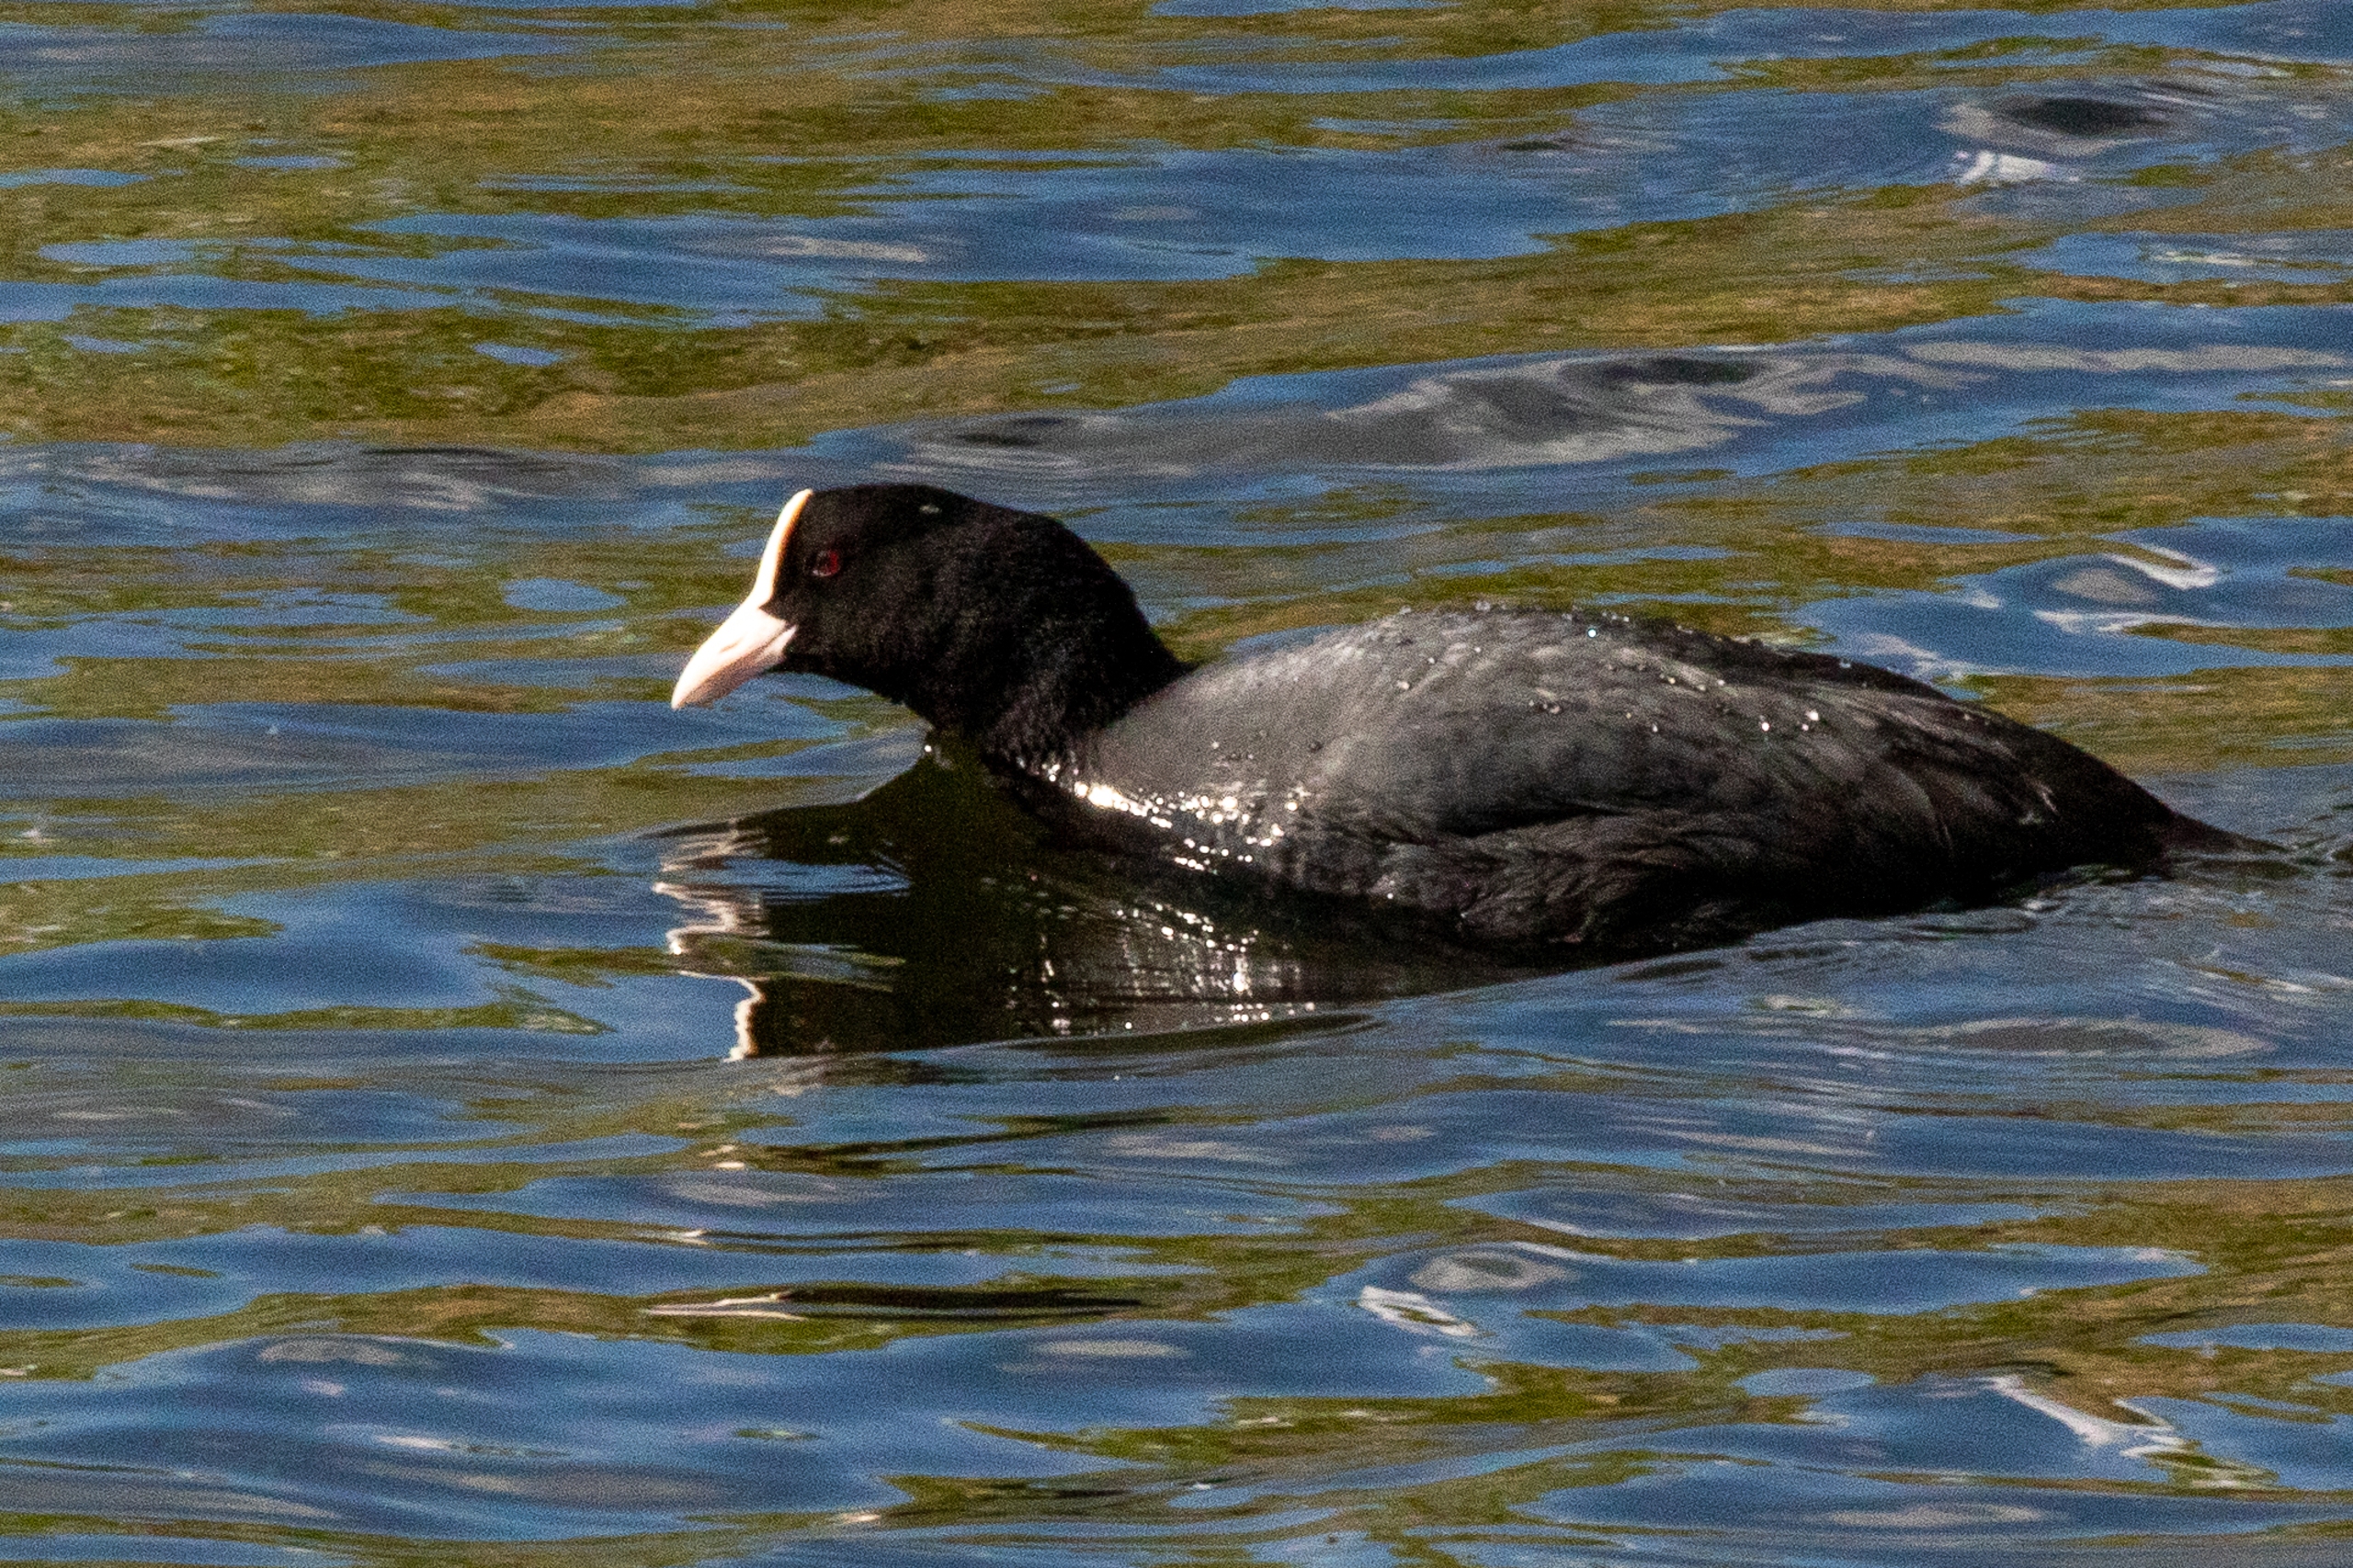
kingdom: Animalia
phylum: Chordata
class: Aves
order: Gruiformes
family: Rallidae
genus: Fulica
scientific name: Fulica atra
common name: Blishøne
